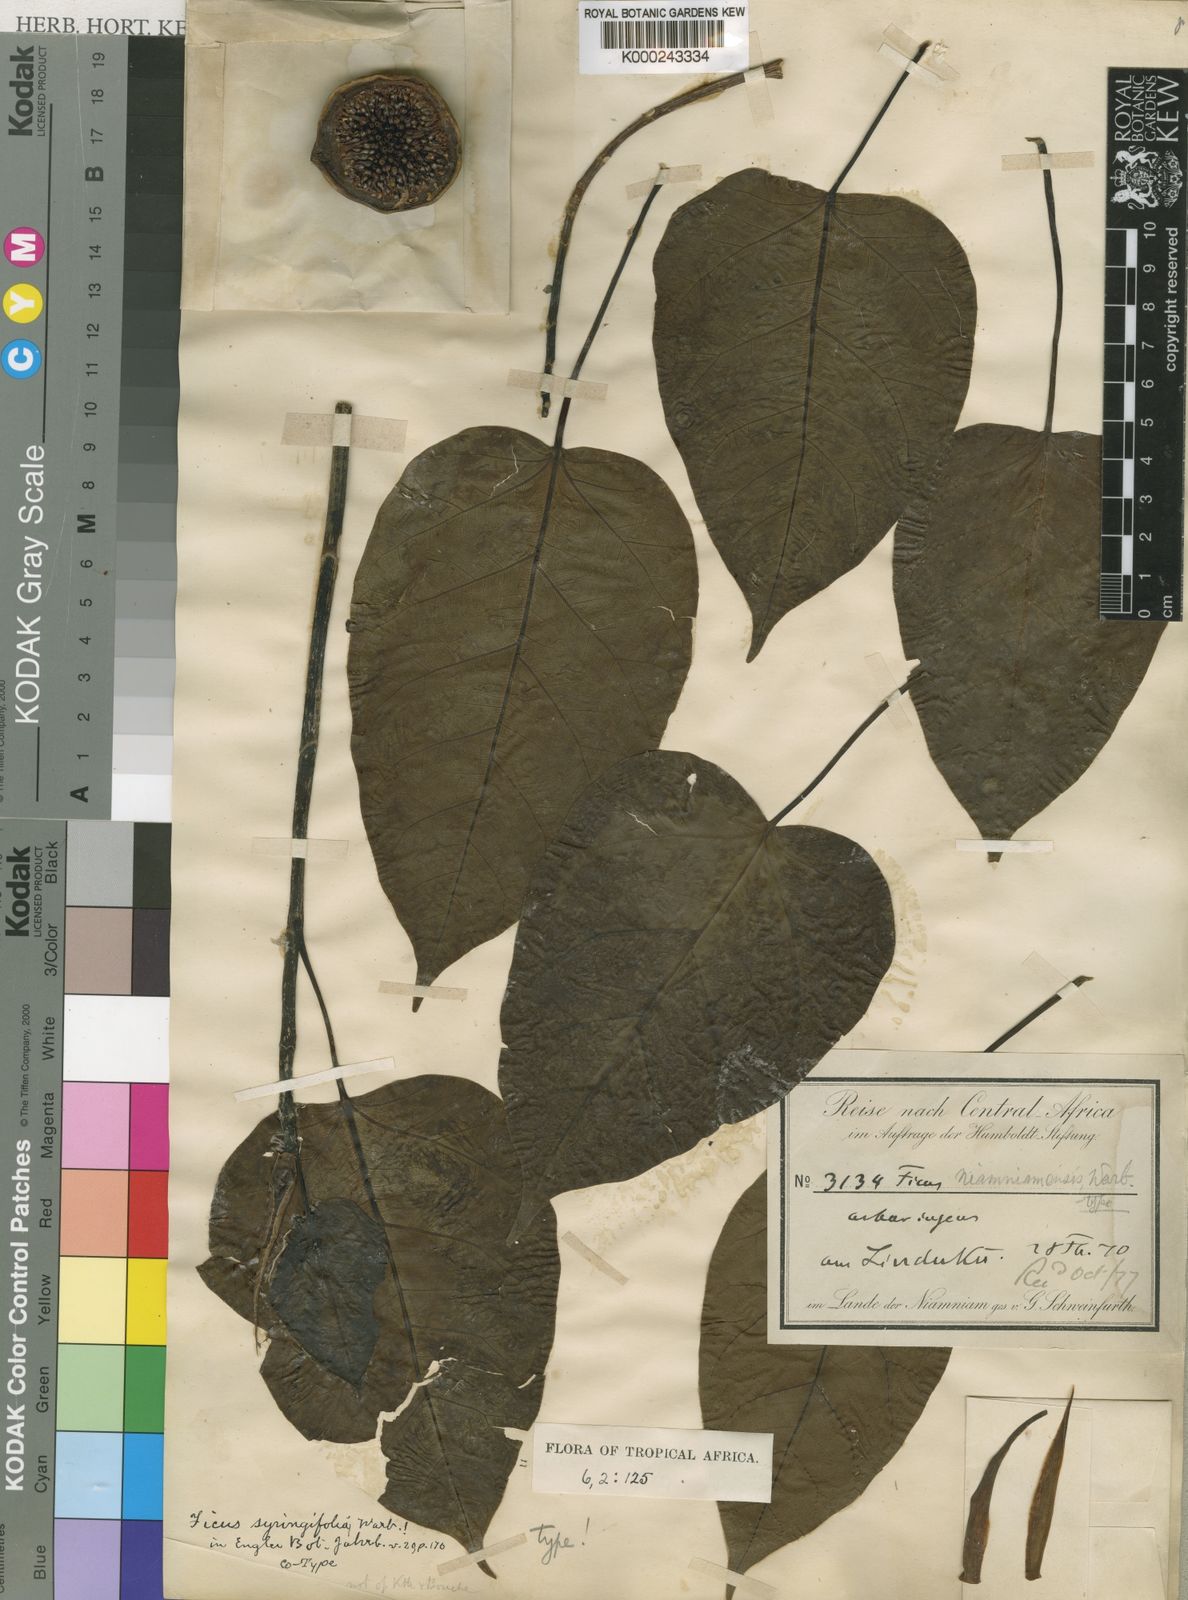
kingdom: Plantae
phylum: Tracheophyta
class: Magnoliopsida
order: Rosales
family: Moraceae
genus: Ficus
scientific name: Ficus polita
